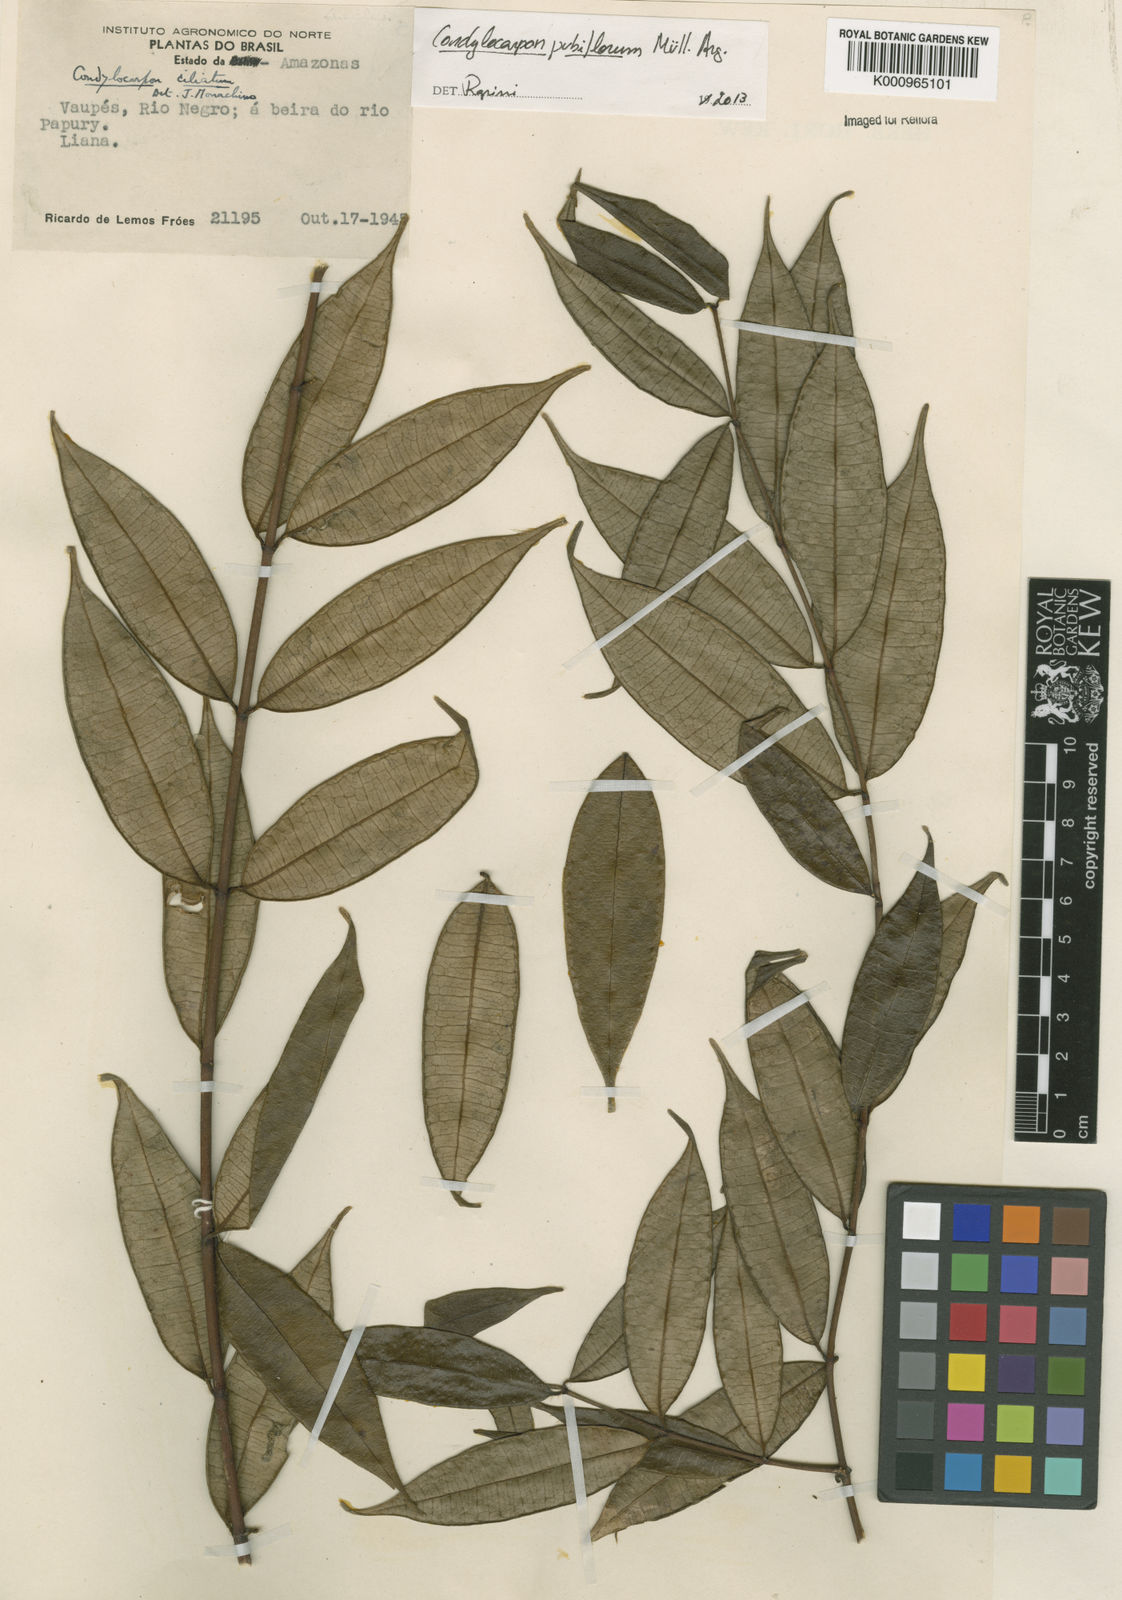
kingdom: Plantae
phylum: Tracheophyta
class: Magnoliopsida
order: Gentianales
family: Apocynaceae
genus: Condylocarpon
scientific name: Condylocarpon
